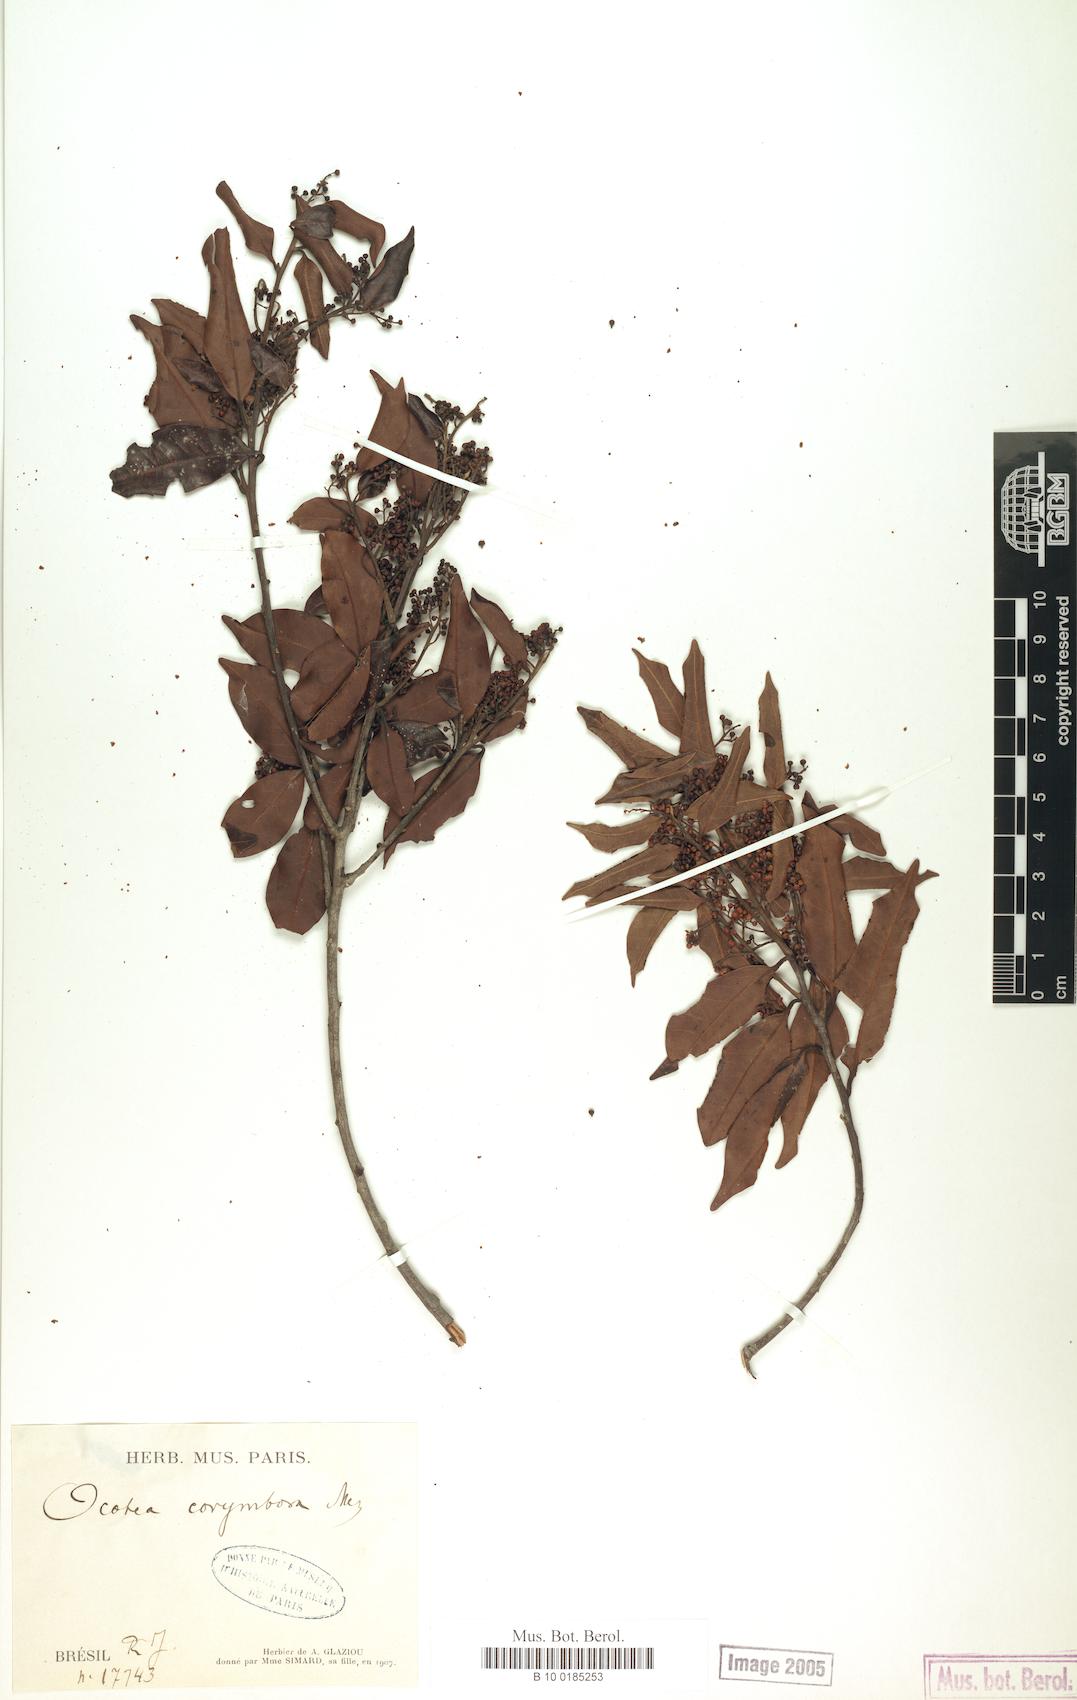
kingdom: Plantae
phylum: Tracheophyta
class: Magnoliopsida
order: Laurales
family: Lauraceae
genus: Mespilodaphne
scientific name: Mespilodaphne corymbosa
